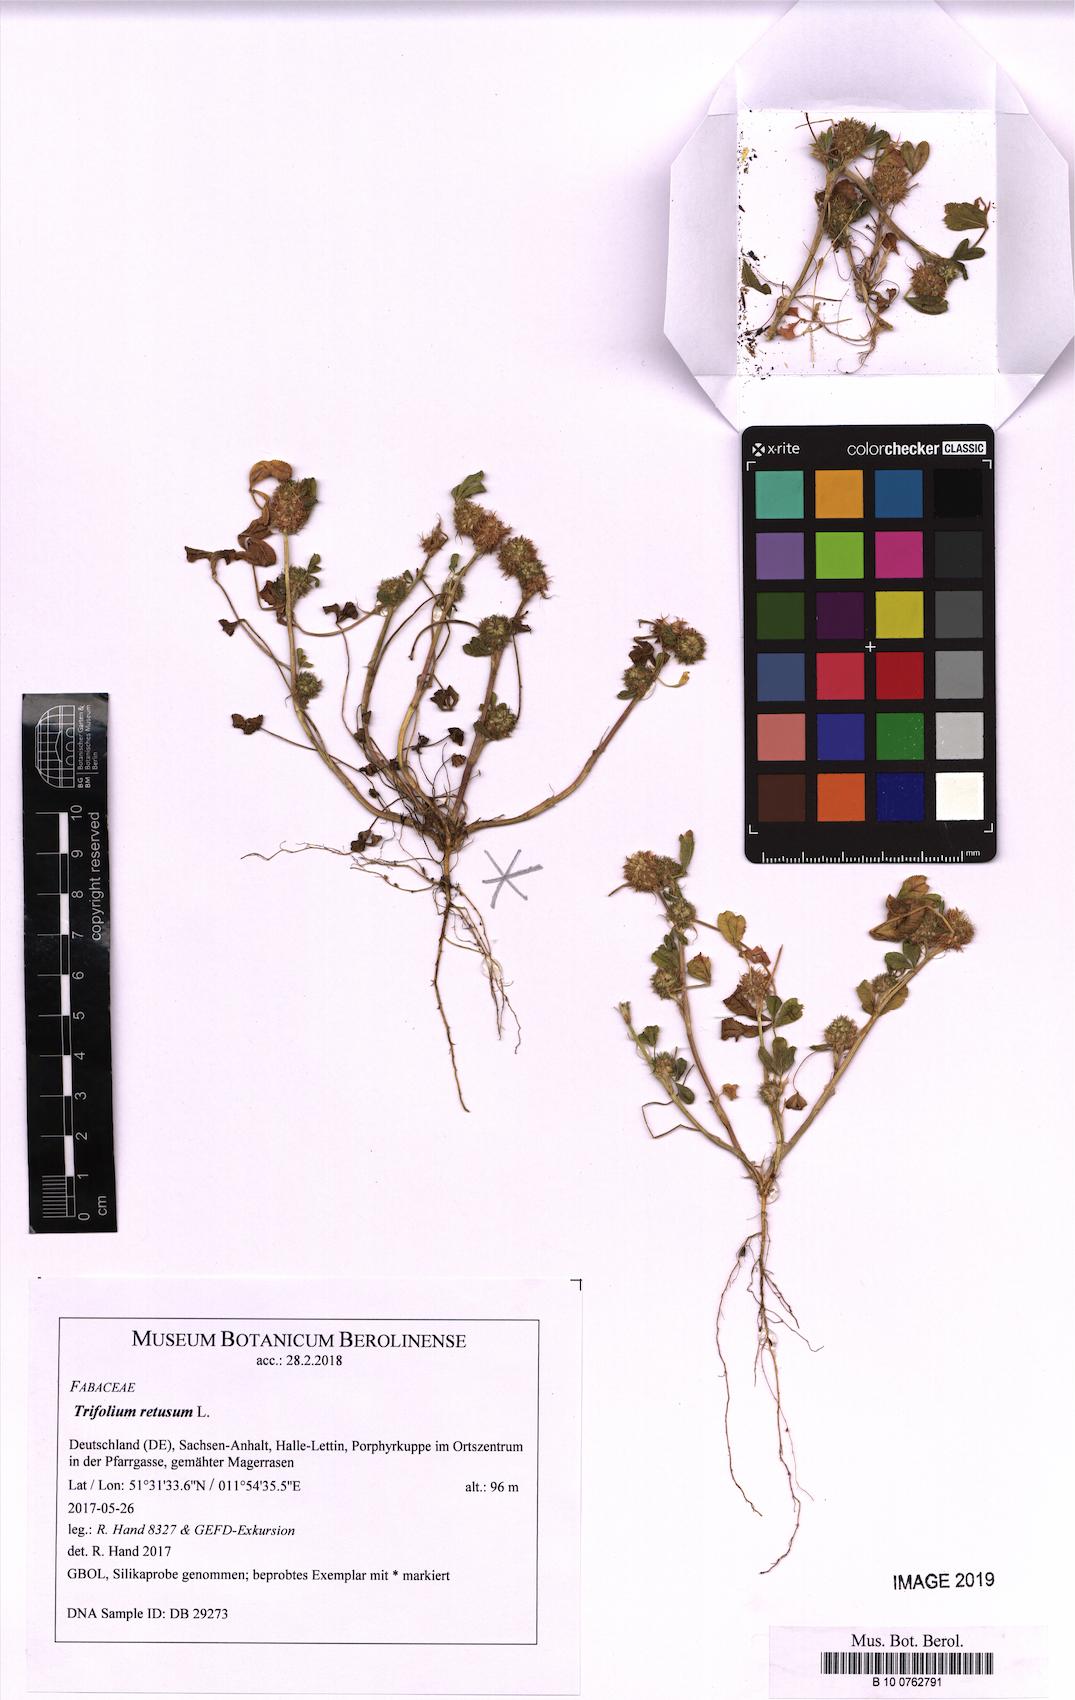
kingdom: Plantae
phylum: Tracheophyta
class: Magnoliopsida
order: Fabales
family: Fabaceae
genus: Trifolium
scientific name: Trifolium retusum
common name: Teasel clover
